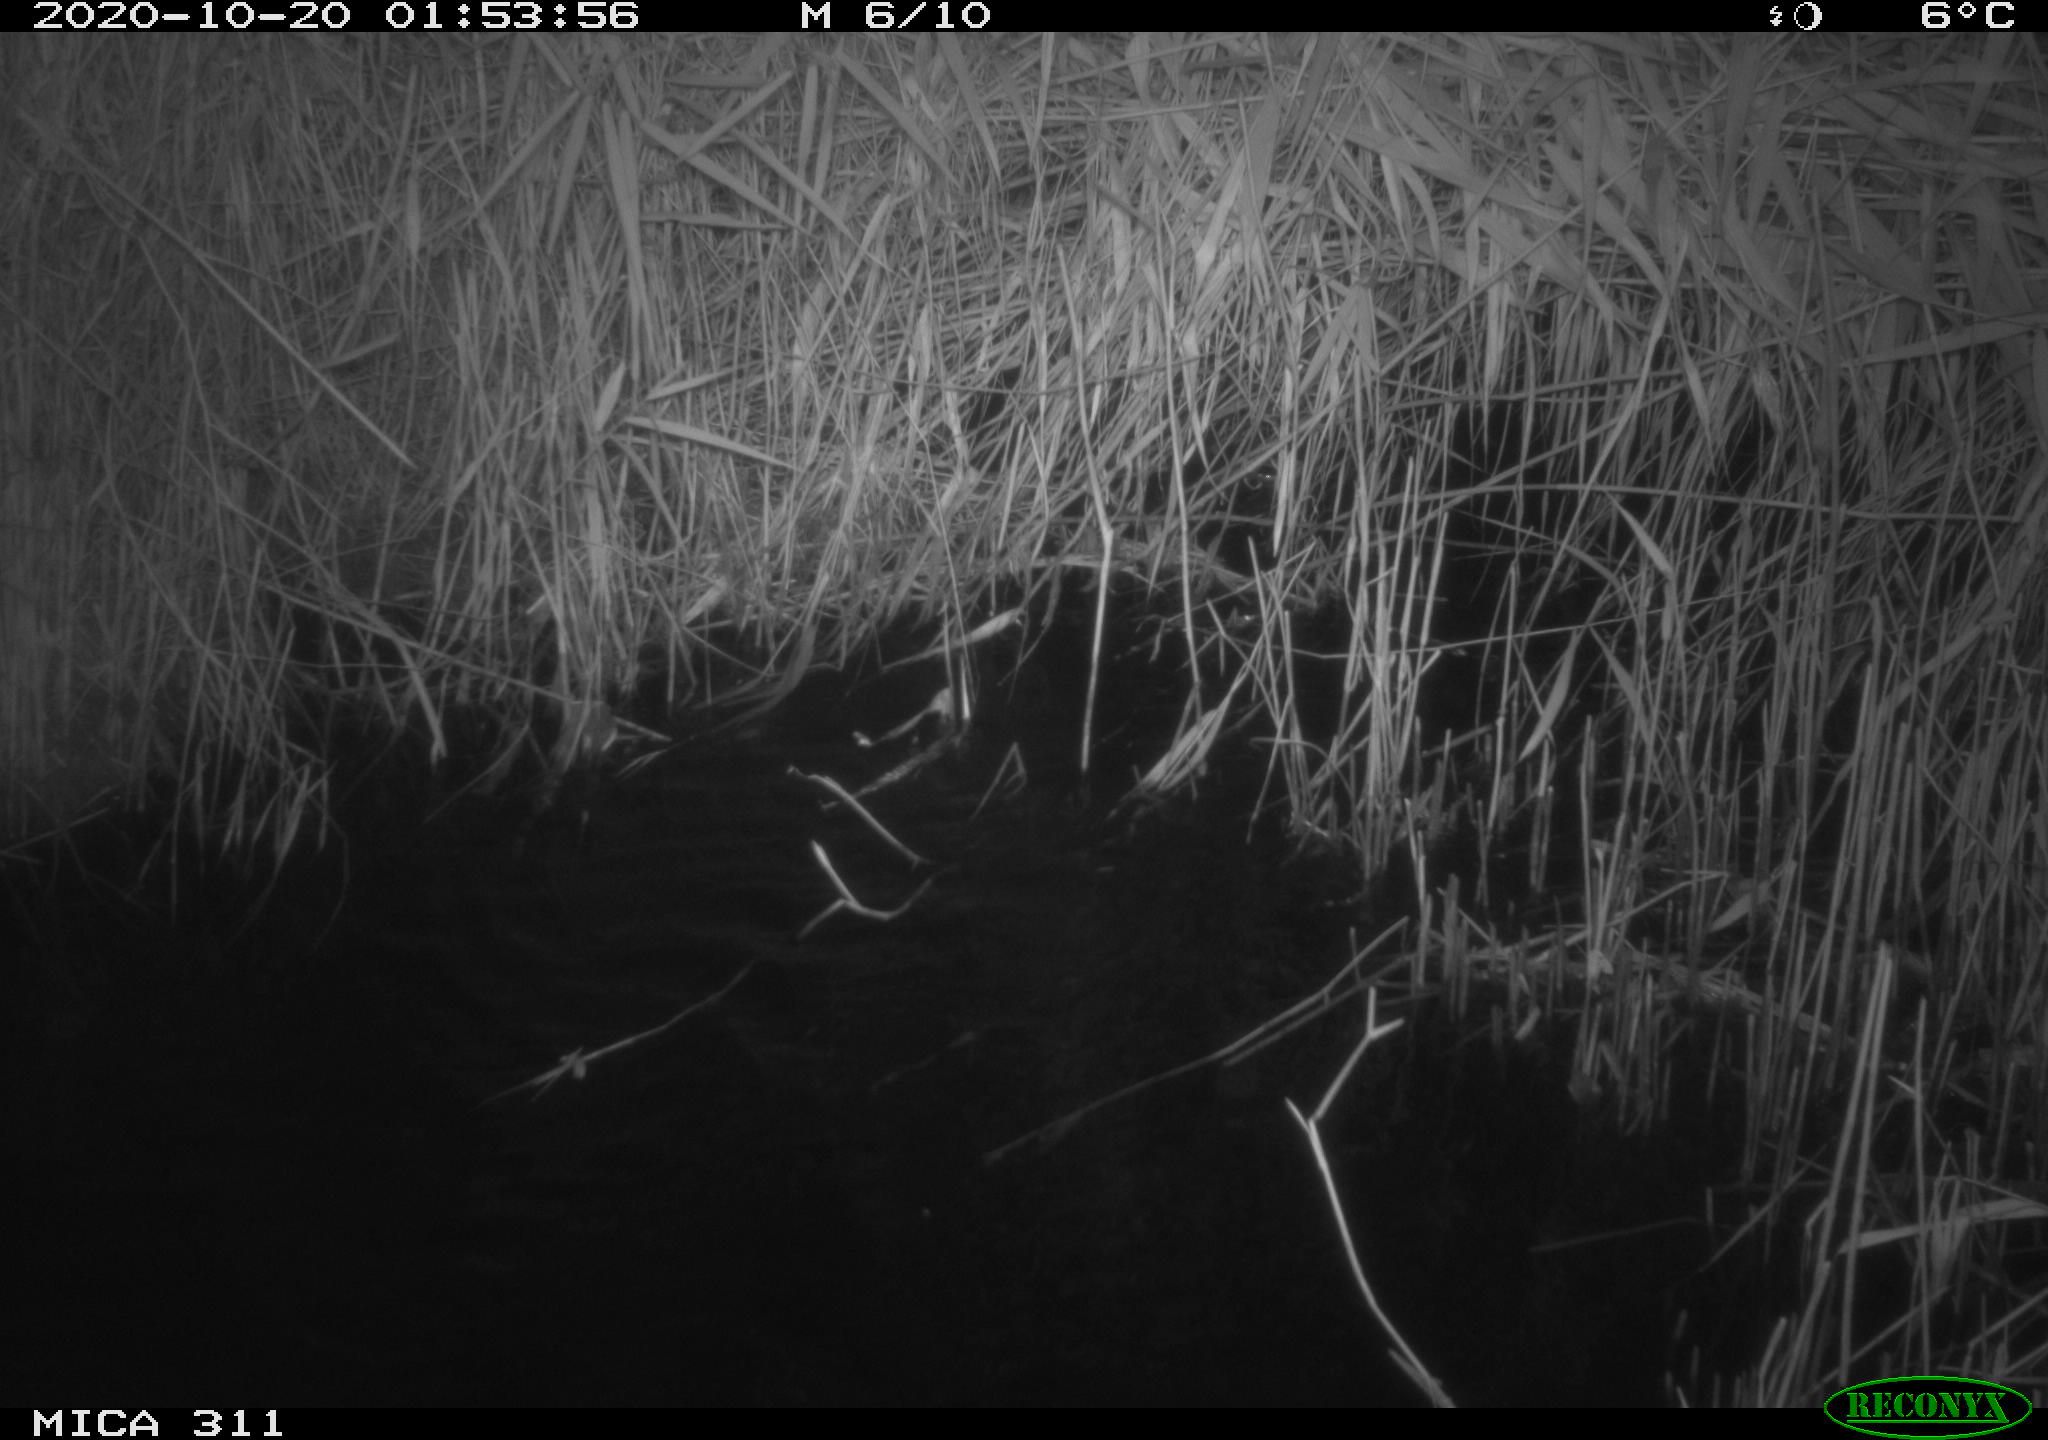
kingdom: Animalia
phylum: Chordata
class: Mammalia
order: Rodentia
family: Cricetidae
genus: Ondatra
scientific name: Ondatra zibethicus
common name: Muskrat
